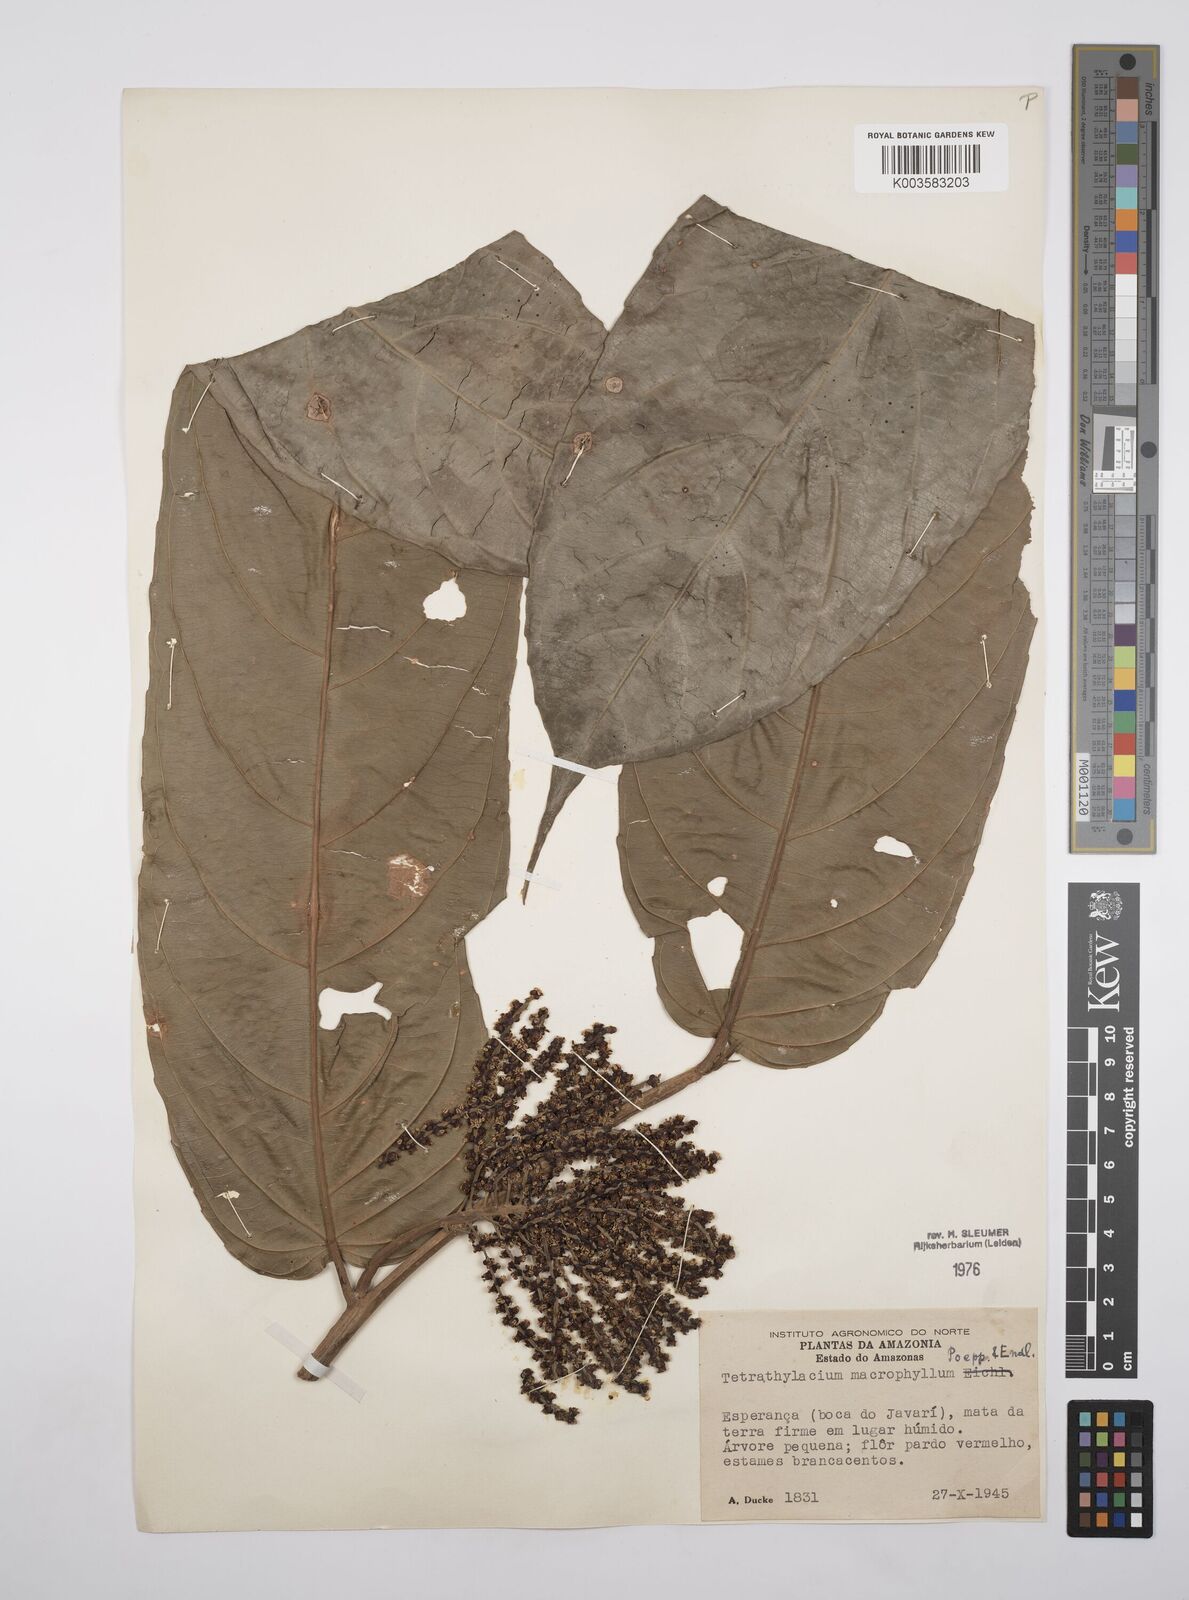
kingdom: Plantae
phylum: Tracheophyta
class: Magnoliopsida
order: Malpighiales
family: Salicaceae
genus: Tetrathylacium
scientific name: Tetrathylacium macrophyllum
